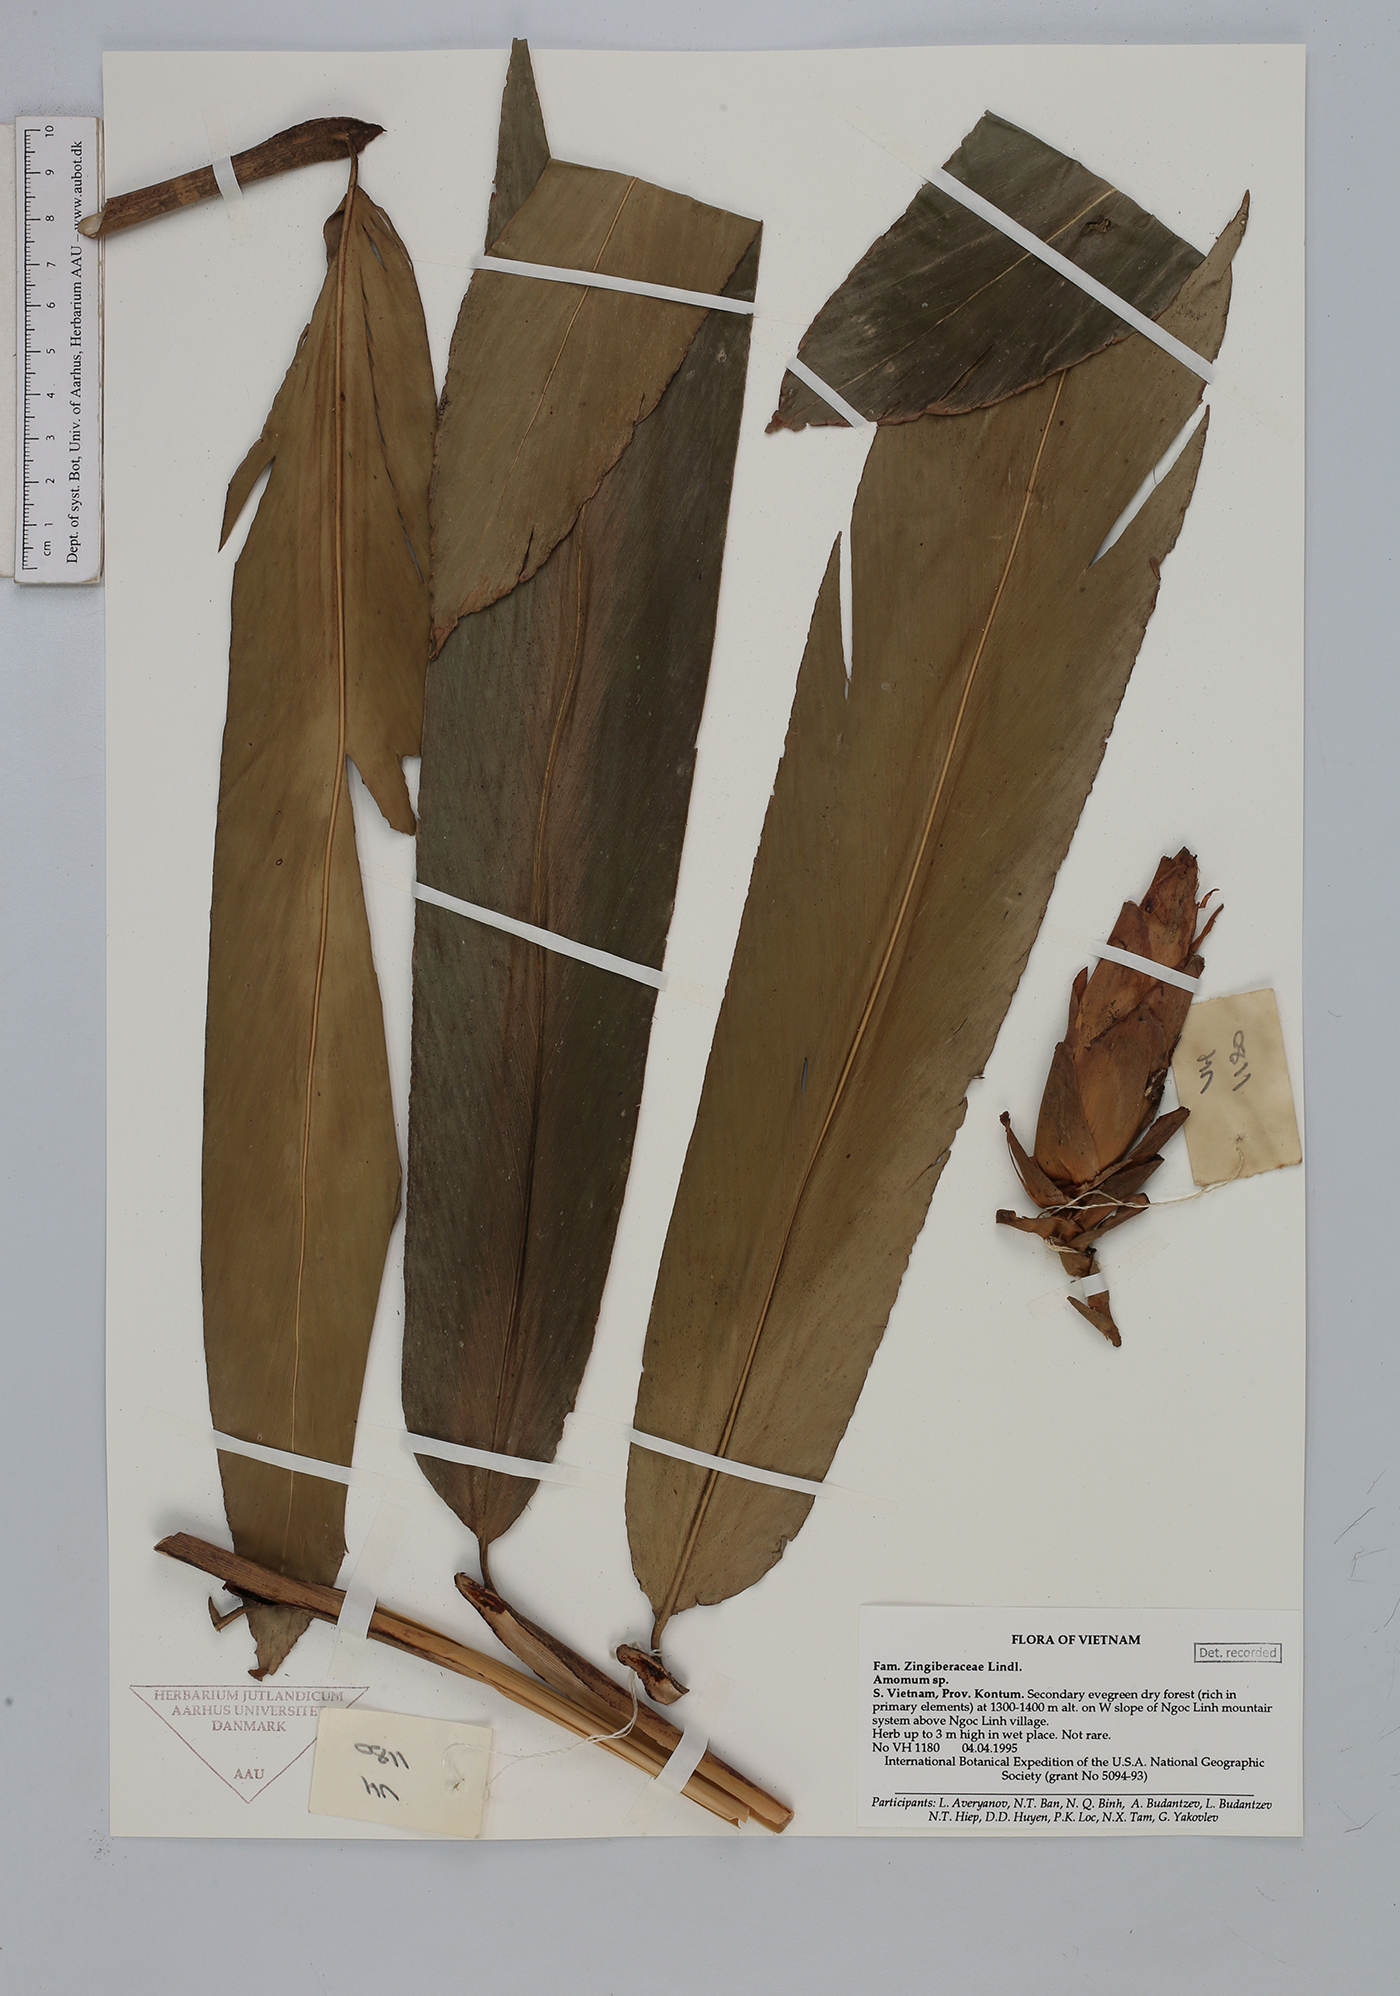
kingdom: Plantae
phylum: Tracheophyta
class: Liliopsida
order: Zingiberales
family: Zingiberaceae
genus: Amomum
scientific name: Amomum
